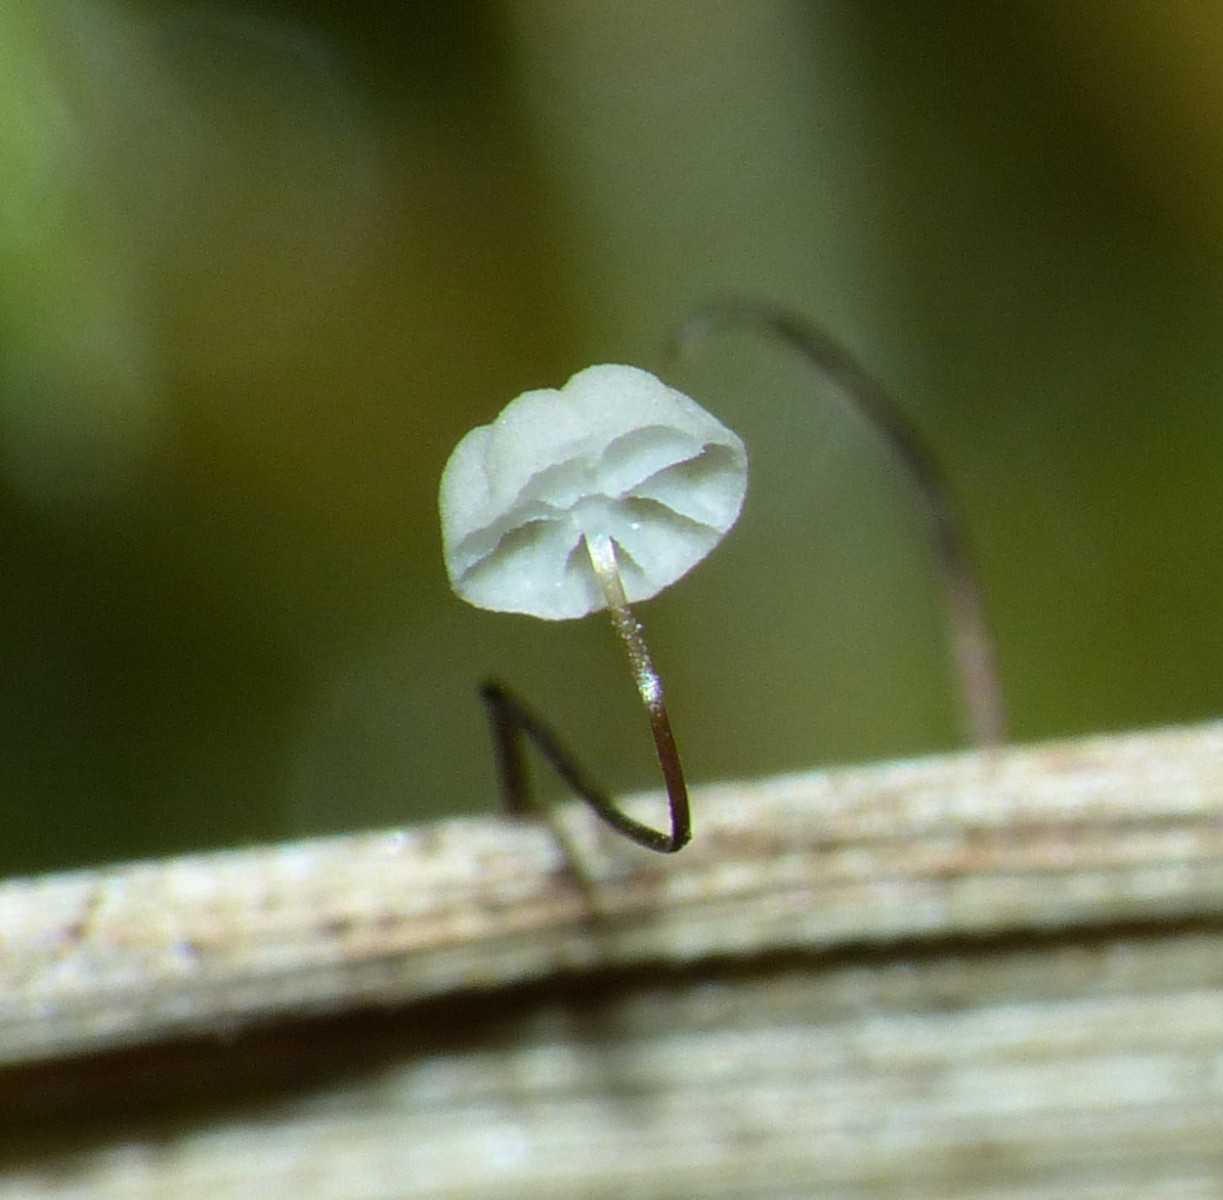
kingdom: Fungi
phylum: Basidiomycota
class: Agaricomycetes
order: Agaricales
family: Marasmiaceae
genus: Marasmius
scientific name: Marasmius limosus
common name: kær-bruskhat
